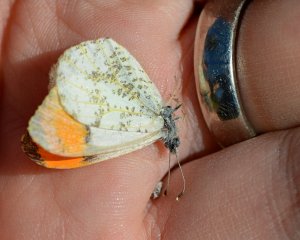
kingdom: Animalia
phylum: Arthropoda
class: Insecta
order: Lepidoptera
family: Pieridae
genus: Anthocharis
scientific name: Anthocharis sara
